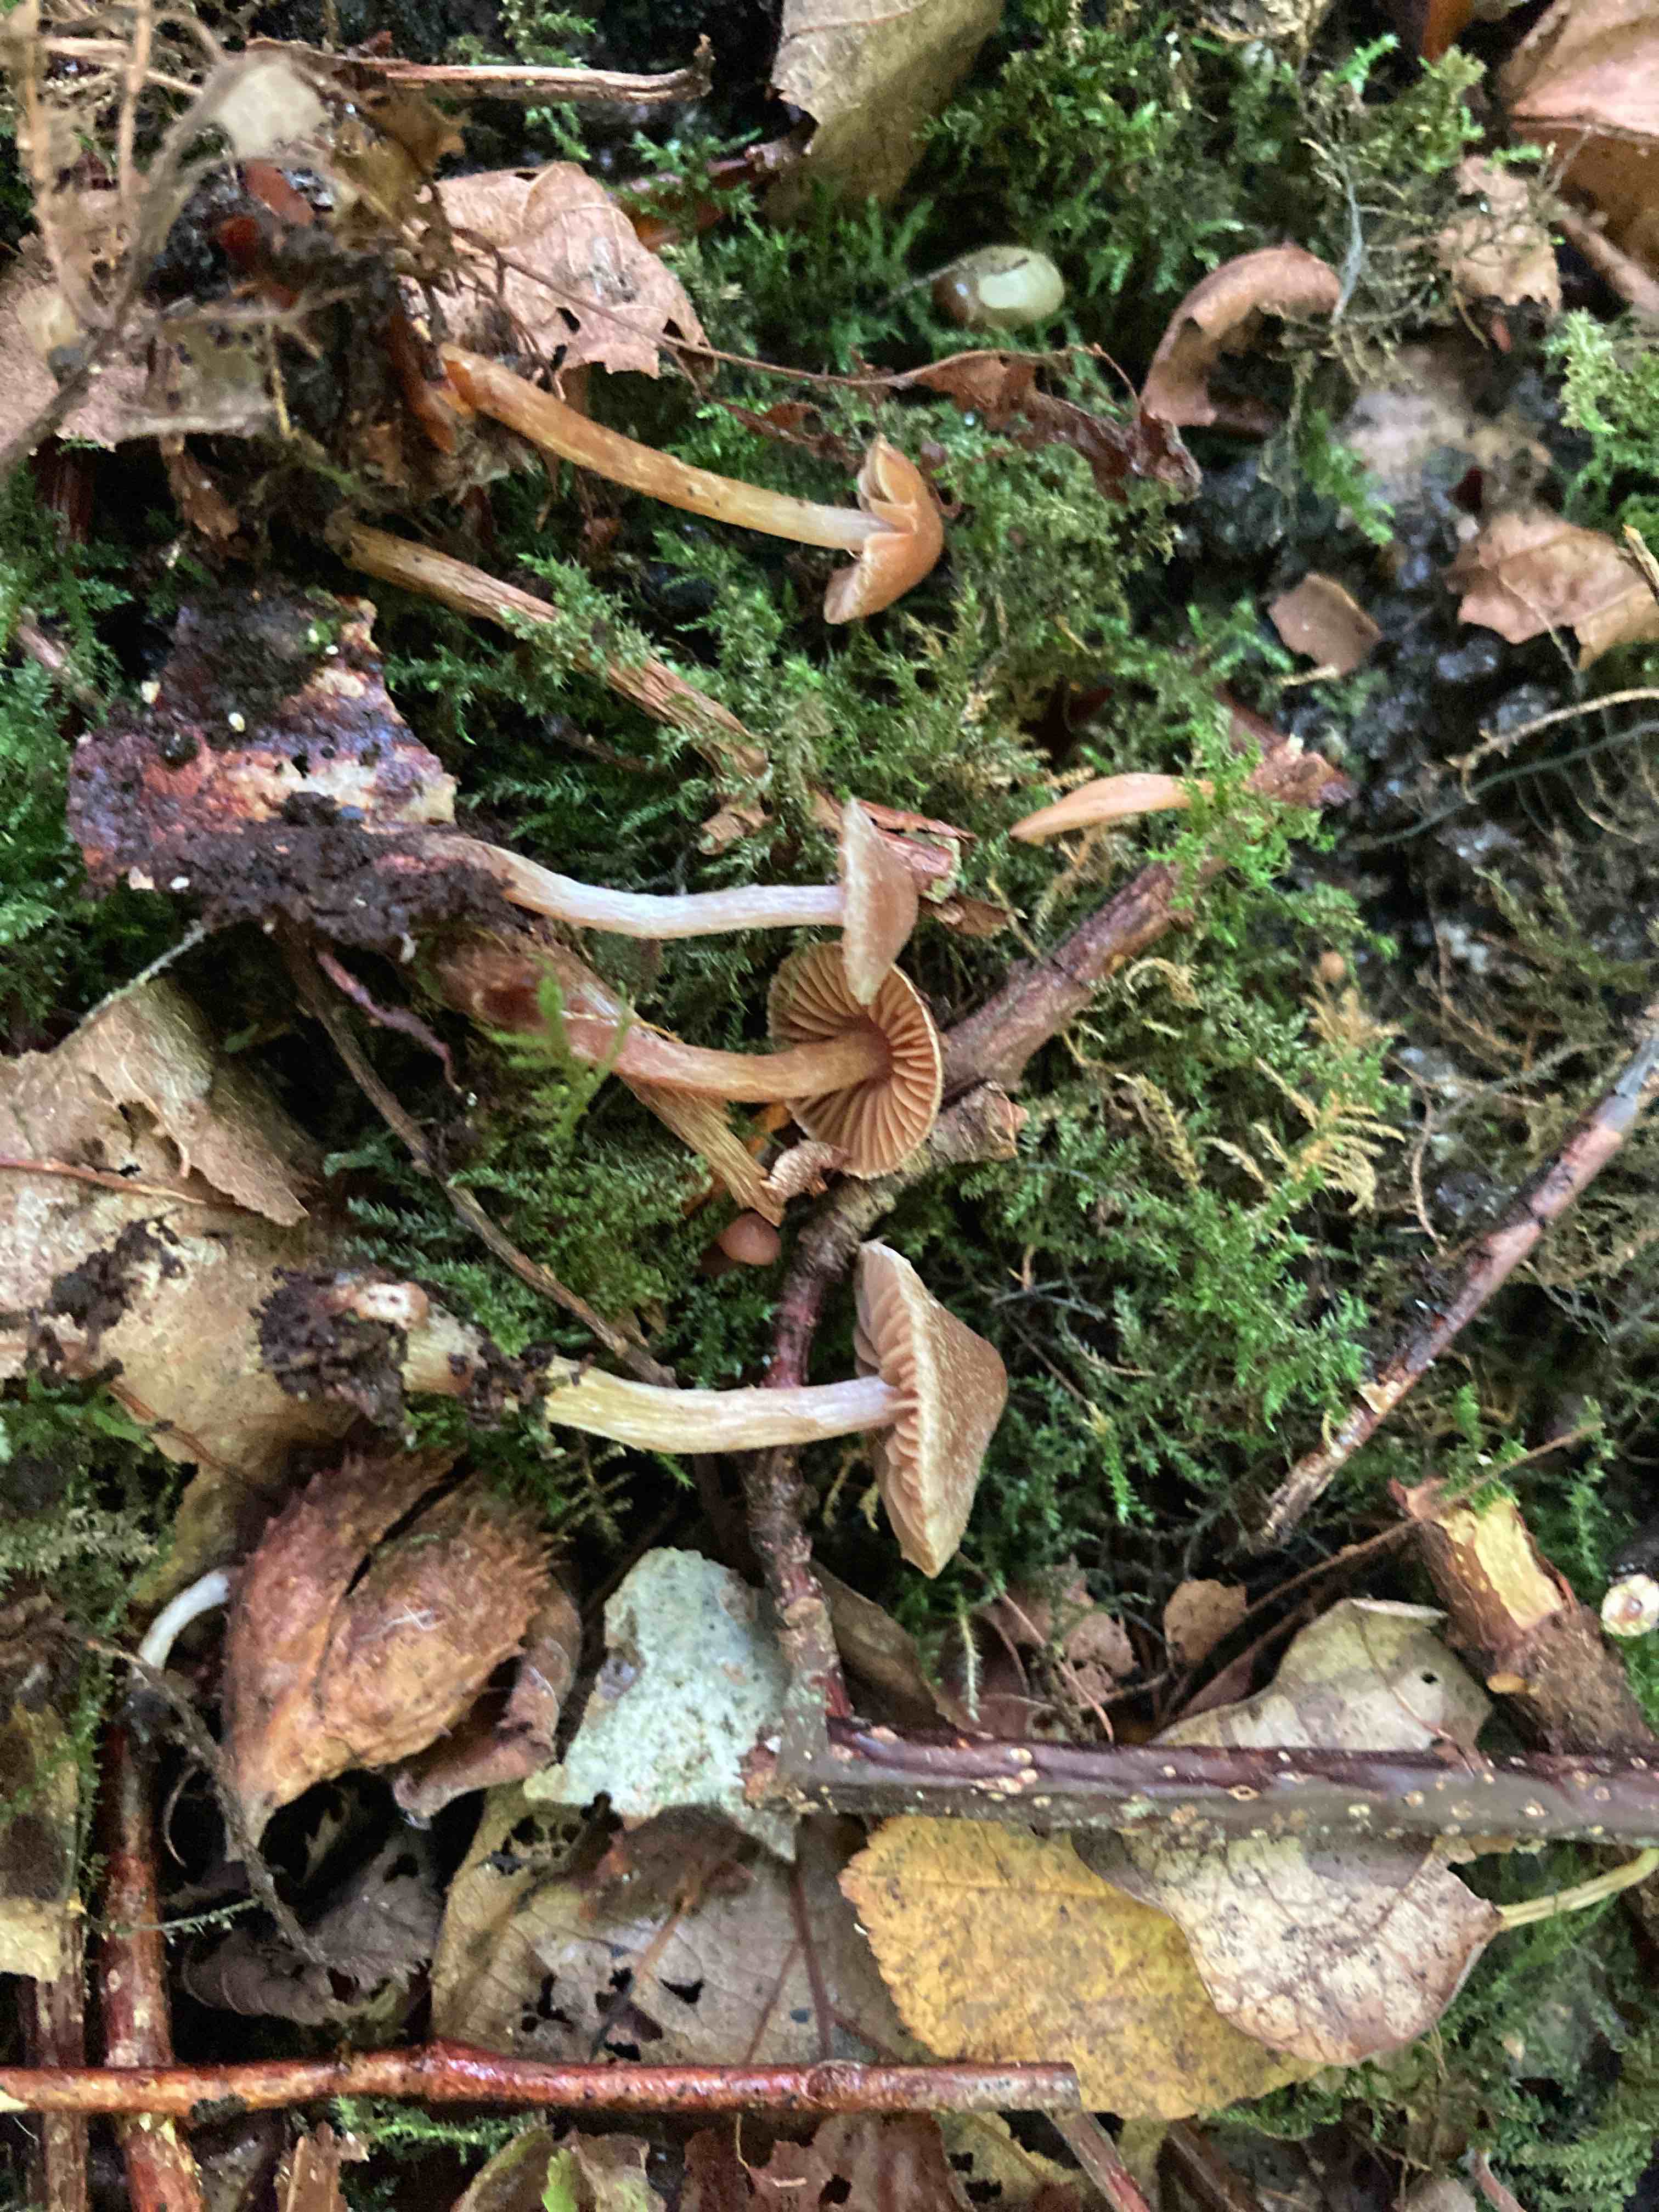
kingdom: Fungi
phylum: Basidiomycota
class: Agaricomycetes
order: Agaricales
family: Hymenogastraceae
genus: Naucoria
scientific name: Naucoria
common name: knaphat
